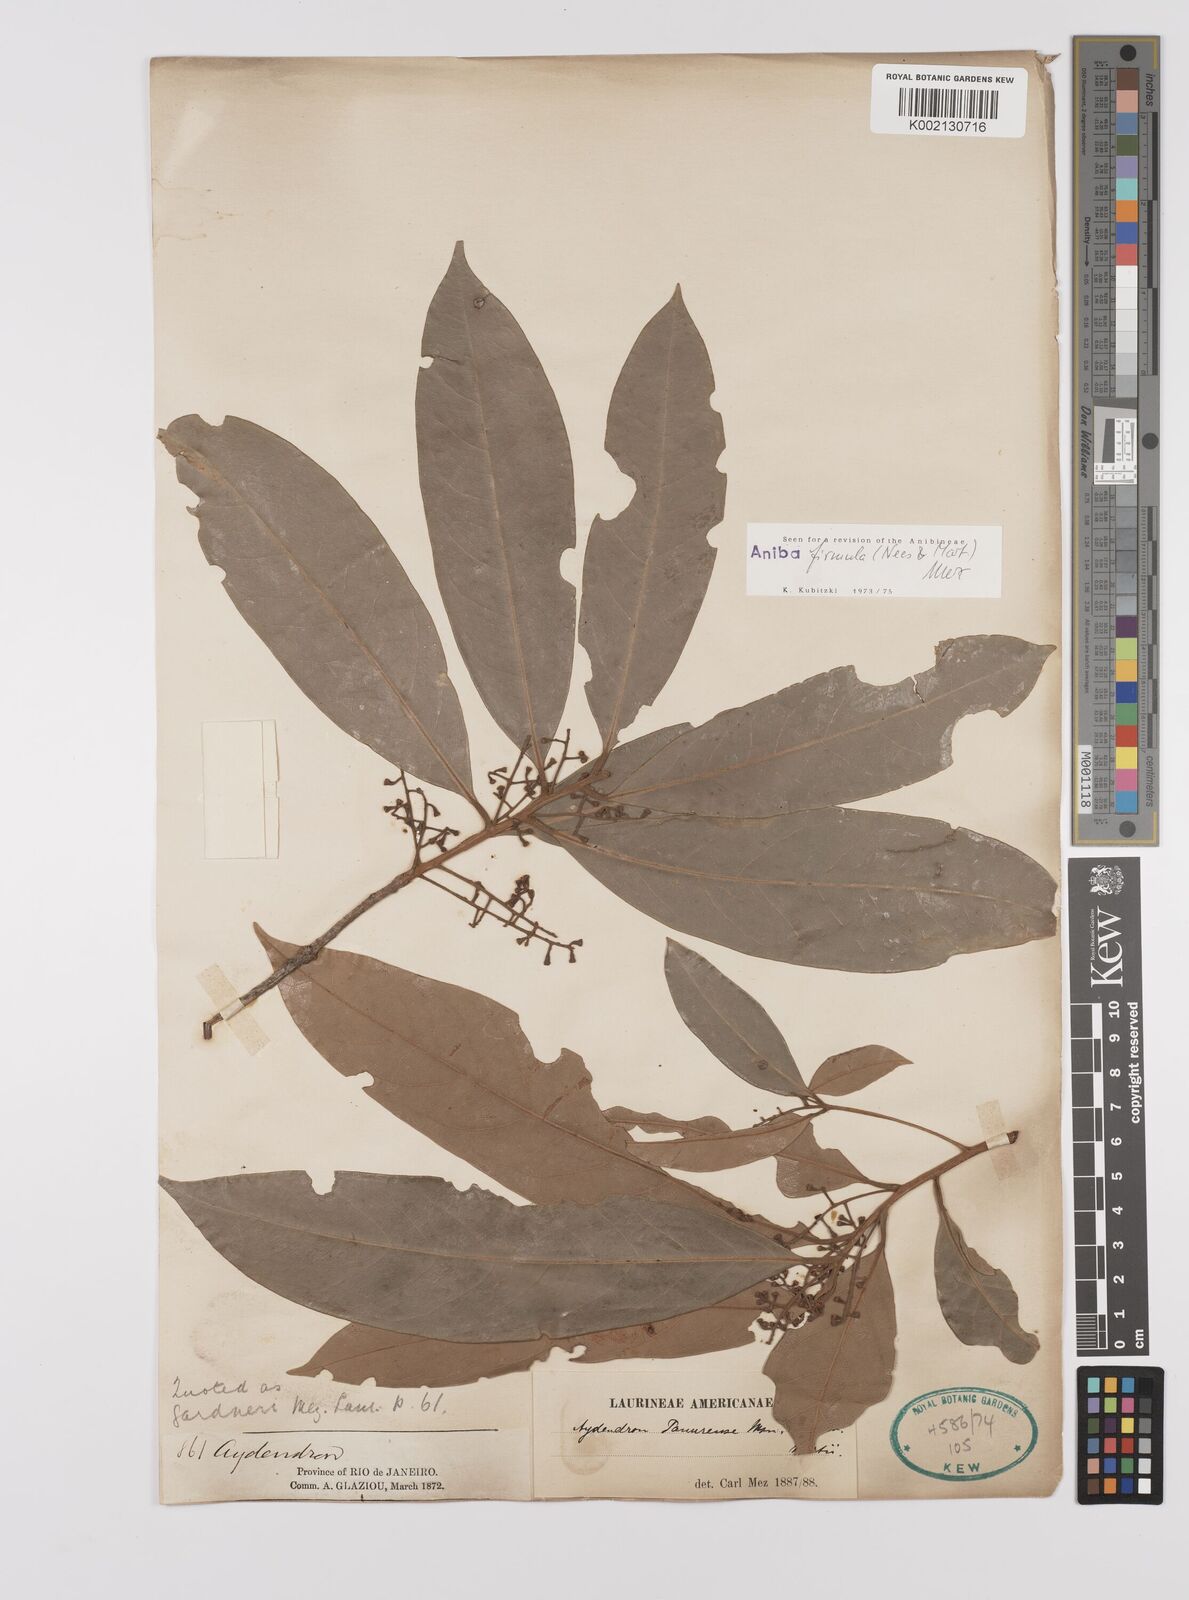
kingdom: Plantae
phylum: Tracheophyta
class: Magnoliopsida
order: Laurales
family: Lauraceae
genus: Aniba
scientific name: Aniba firmula
